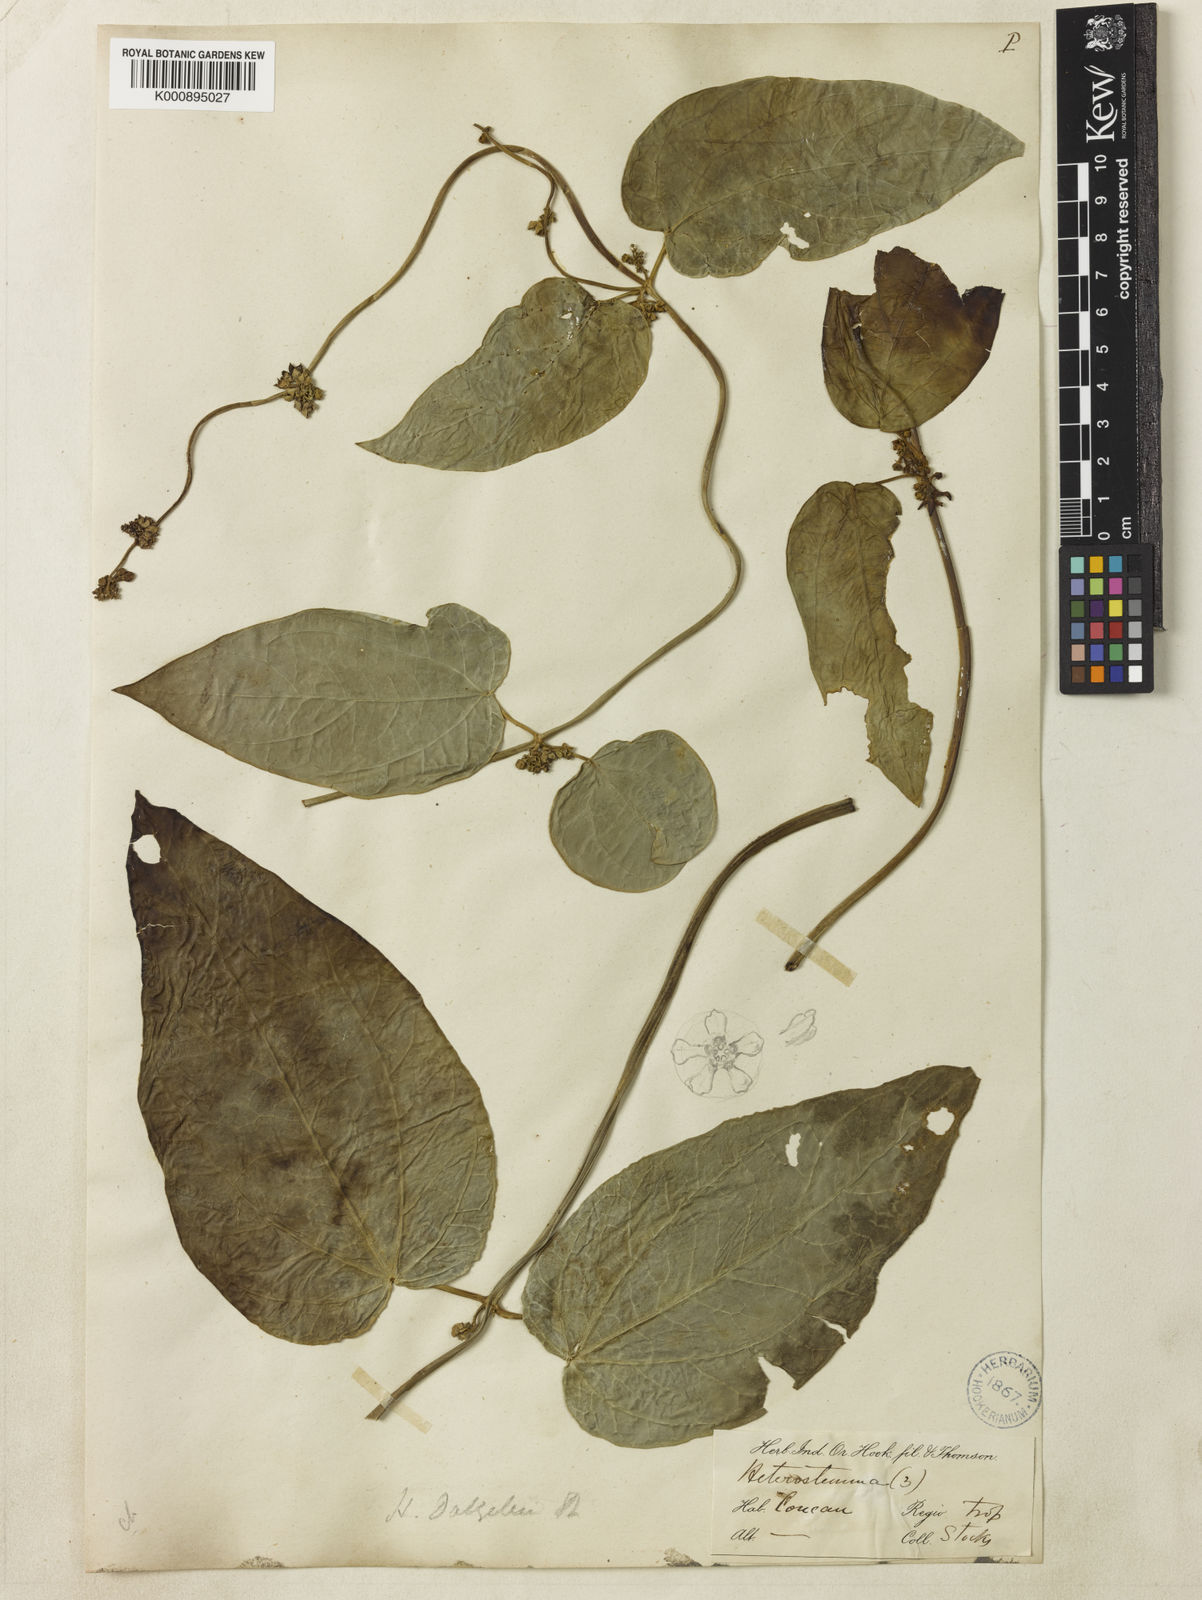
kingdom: Plantae
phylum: Tracheophyta
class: Magnoliopsida
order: Gentianales
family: Apocynaceae
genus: Heterostemma
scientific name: Heterostemma
